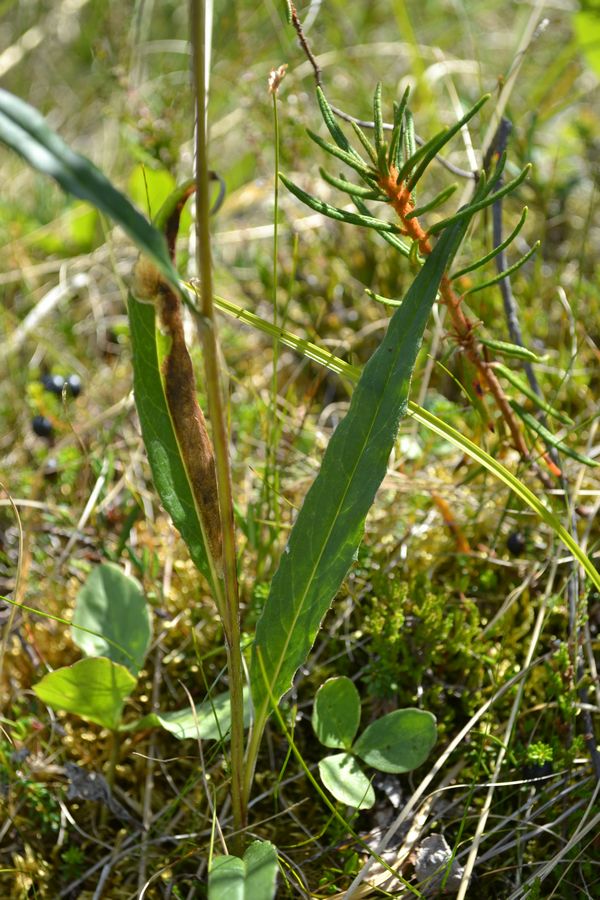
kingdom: Plantae
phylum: Tracheophyta
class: Magnoliopsida
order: Asterales
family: Asteraceae
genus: Saussurea
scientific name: Saussurea alpina
